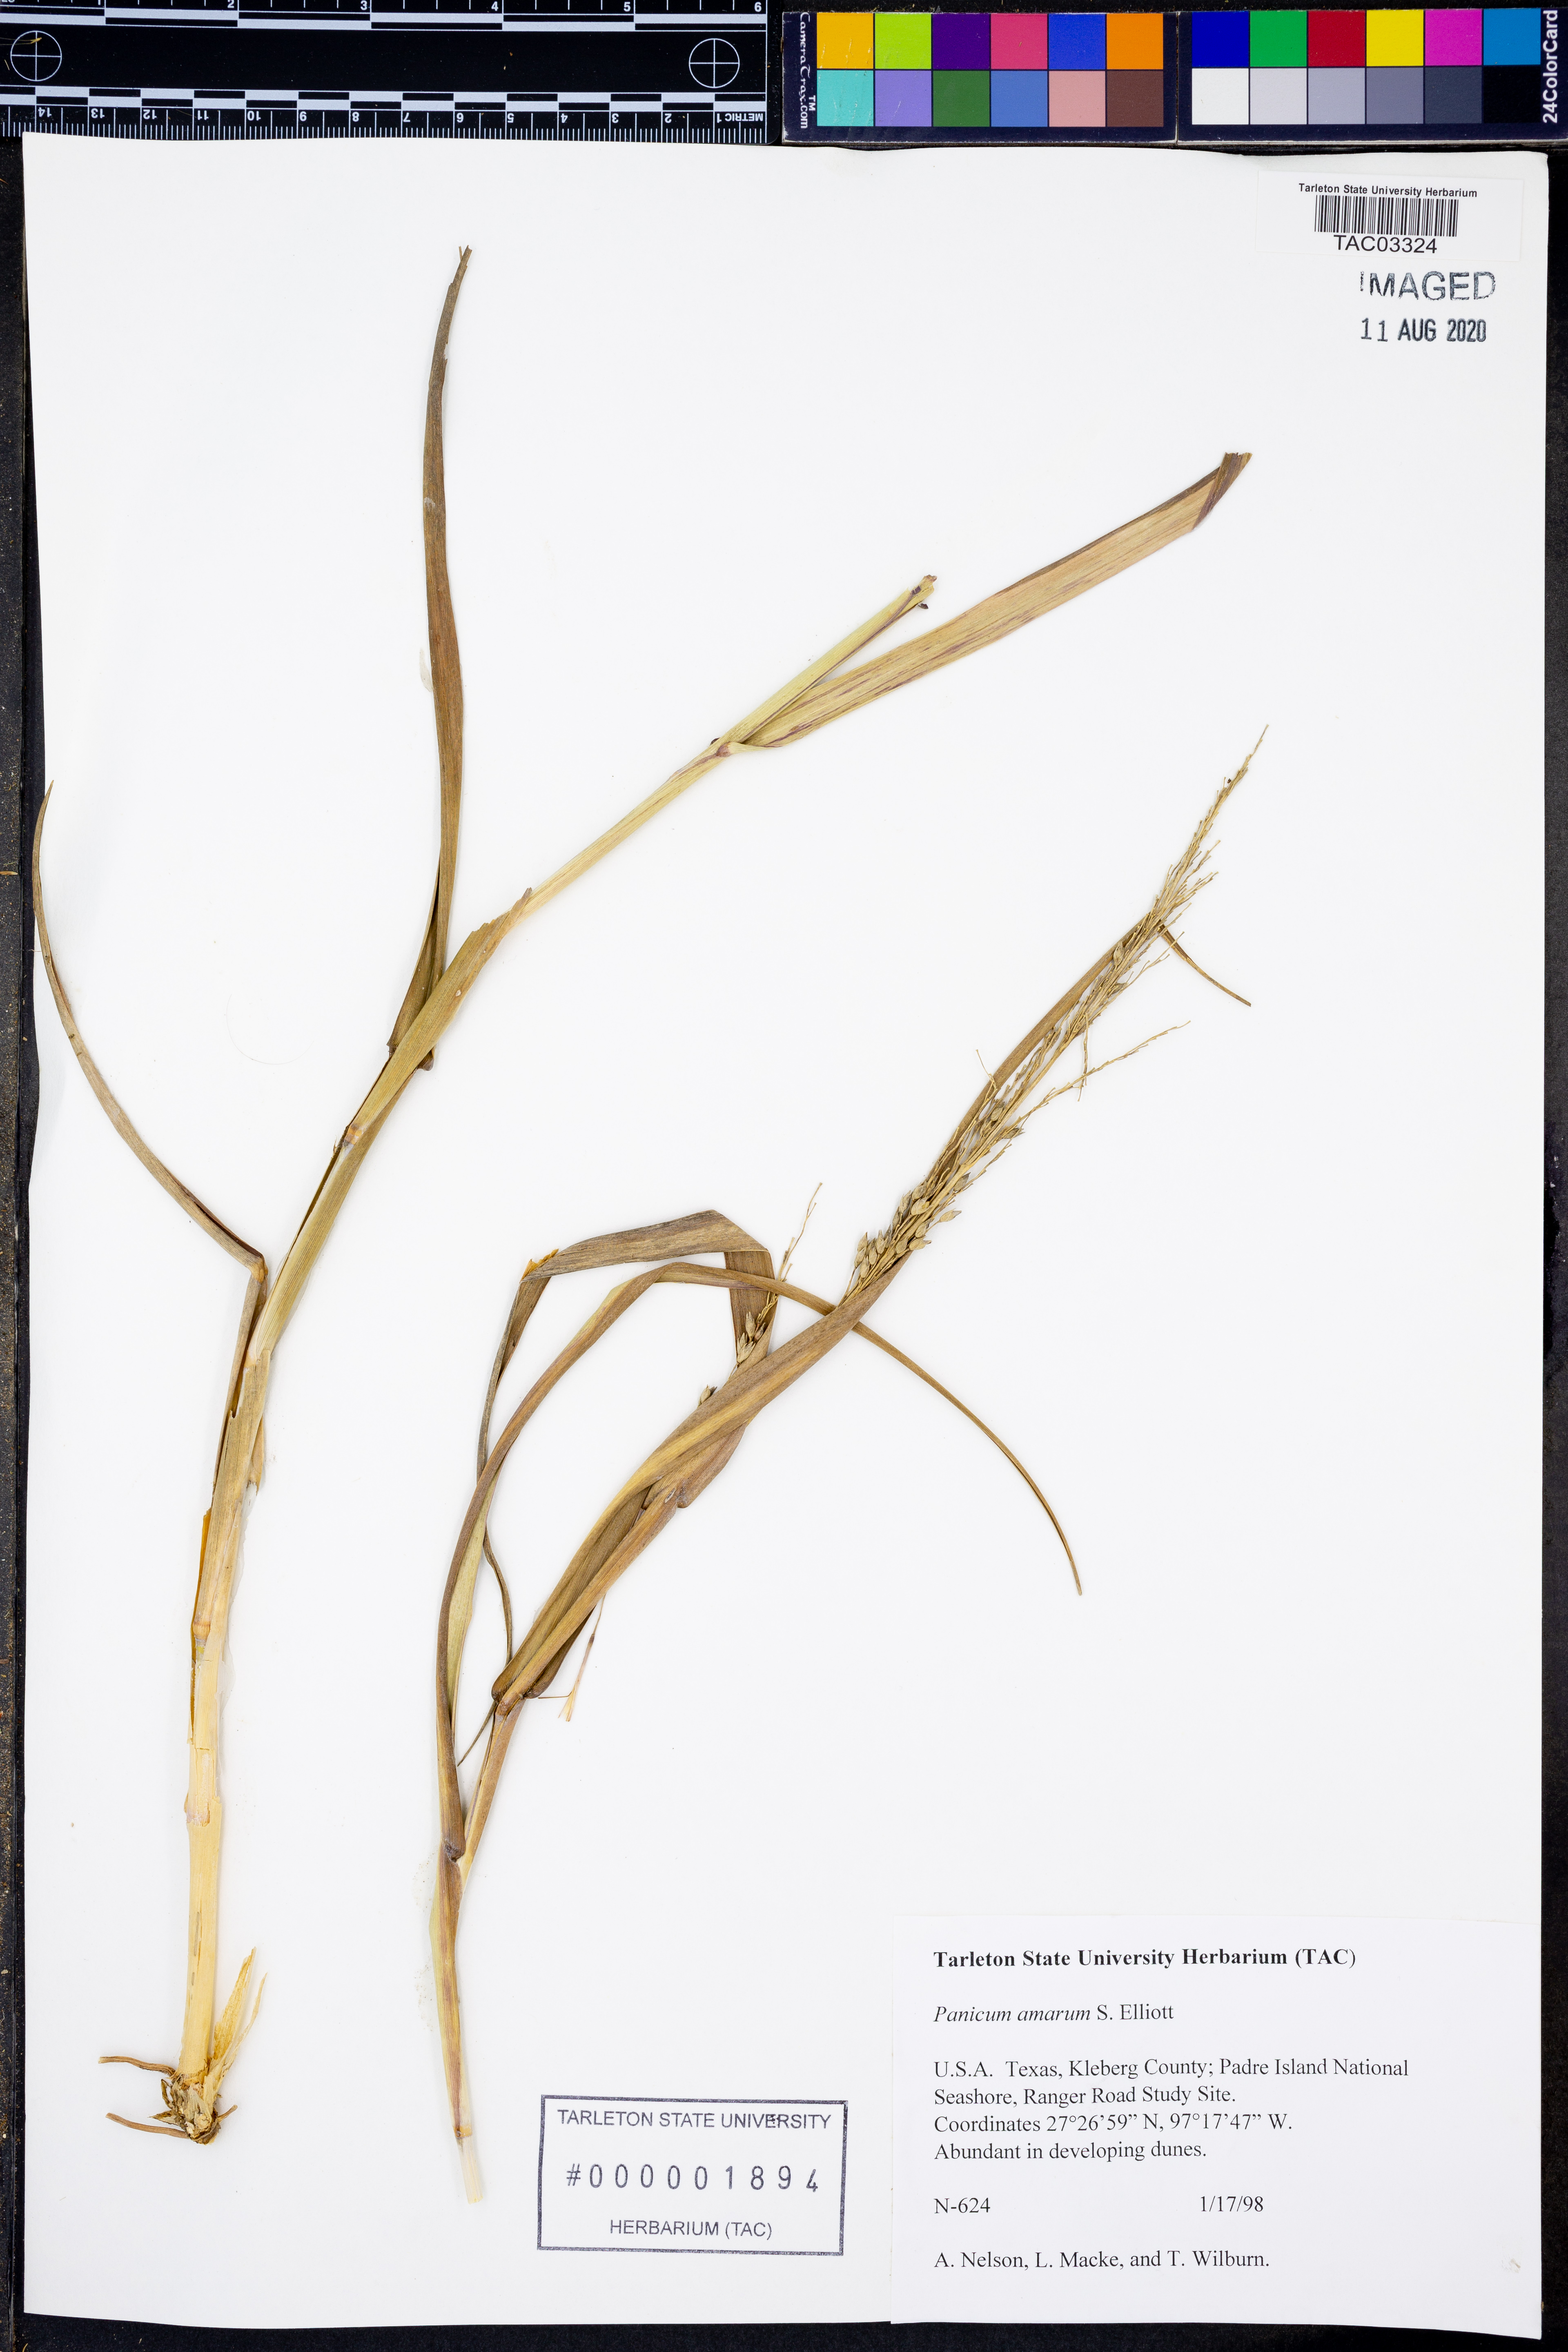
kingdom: Plantae
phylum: Tracheophyta
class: Liliopsida
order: Poales
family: Poaceae
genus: Panicum
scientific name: Panicum amarum
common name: Bitter panicum
